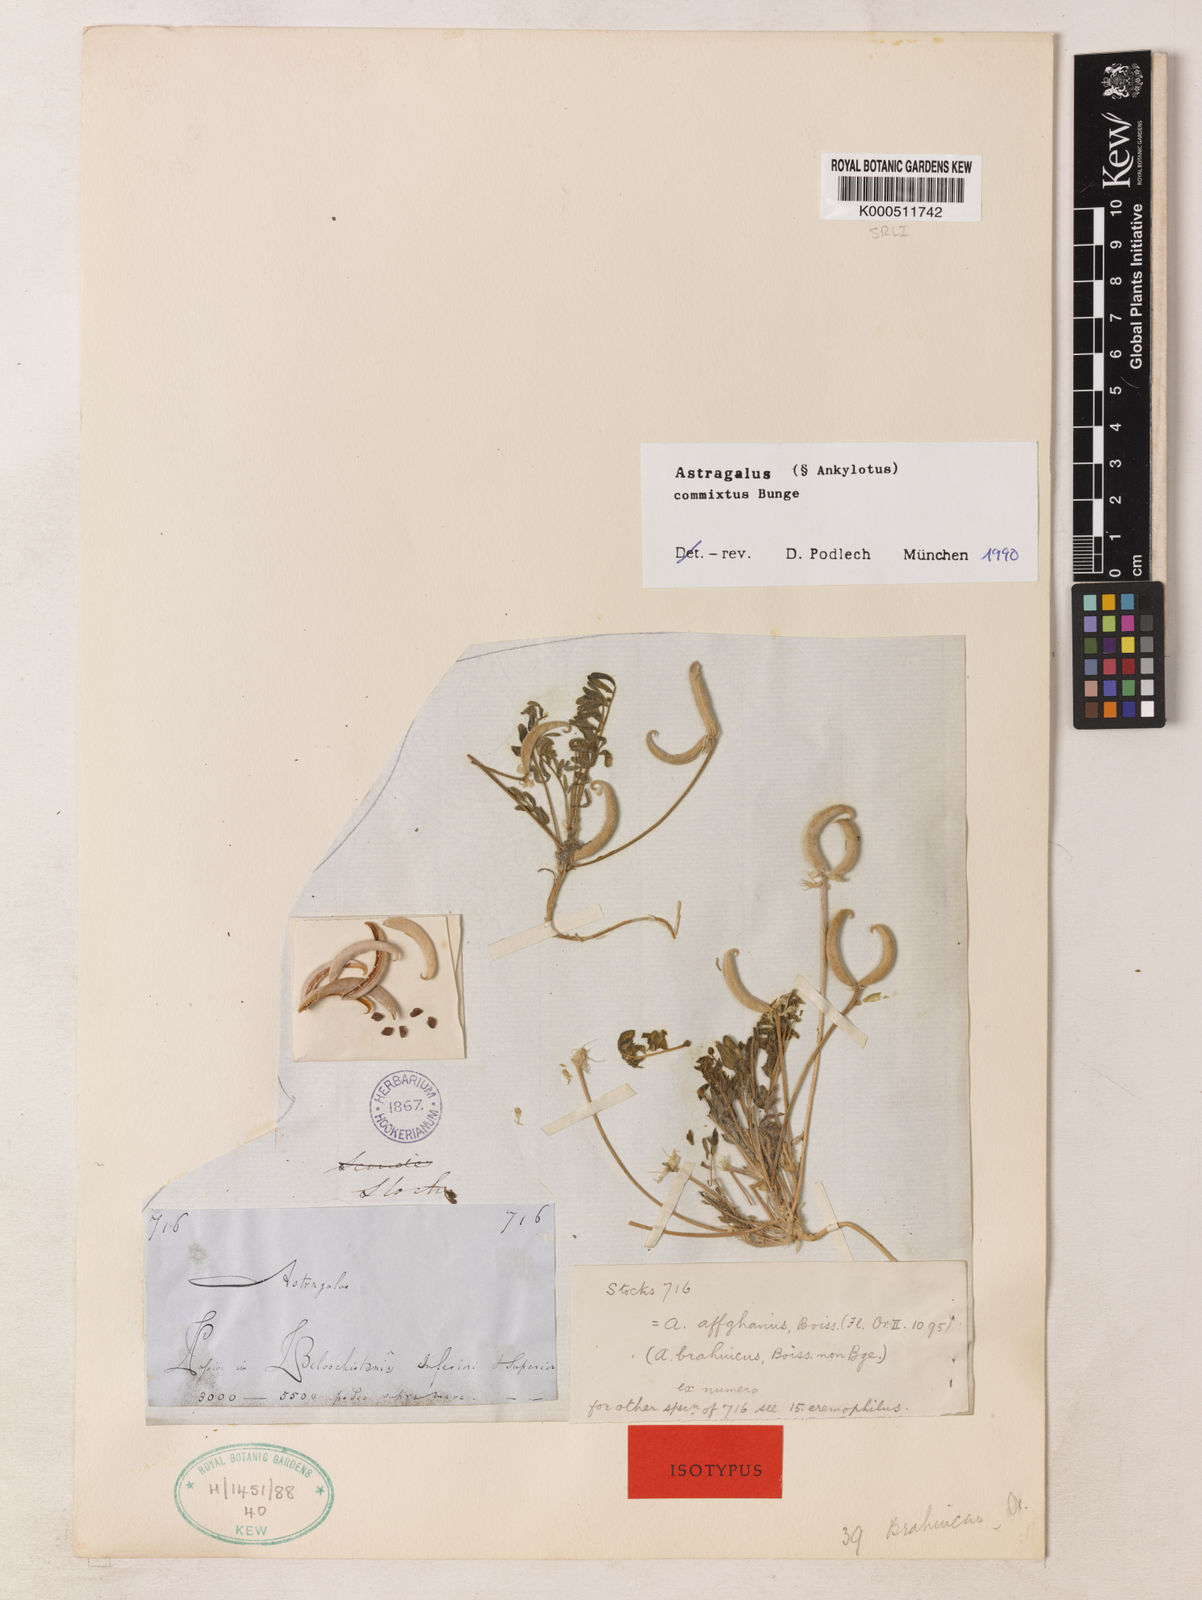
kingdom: Plantae
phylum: Tracheophyta
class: Magnoliopsida
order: Fabales
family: Fabaceae
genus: Astragalus
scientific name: Astragalus commixtus
